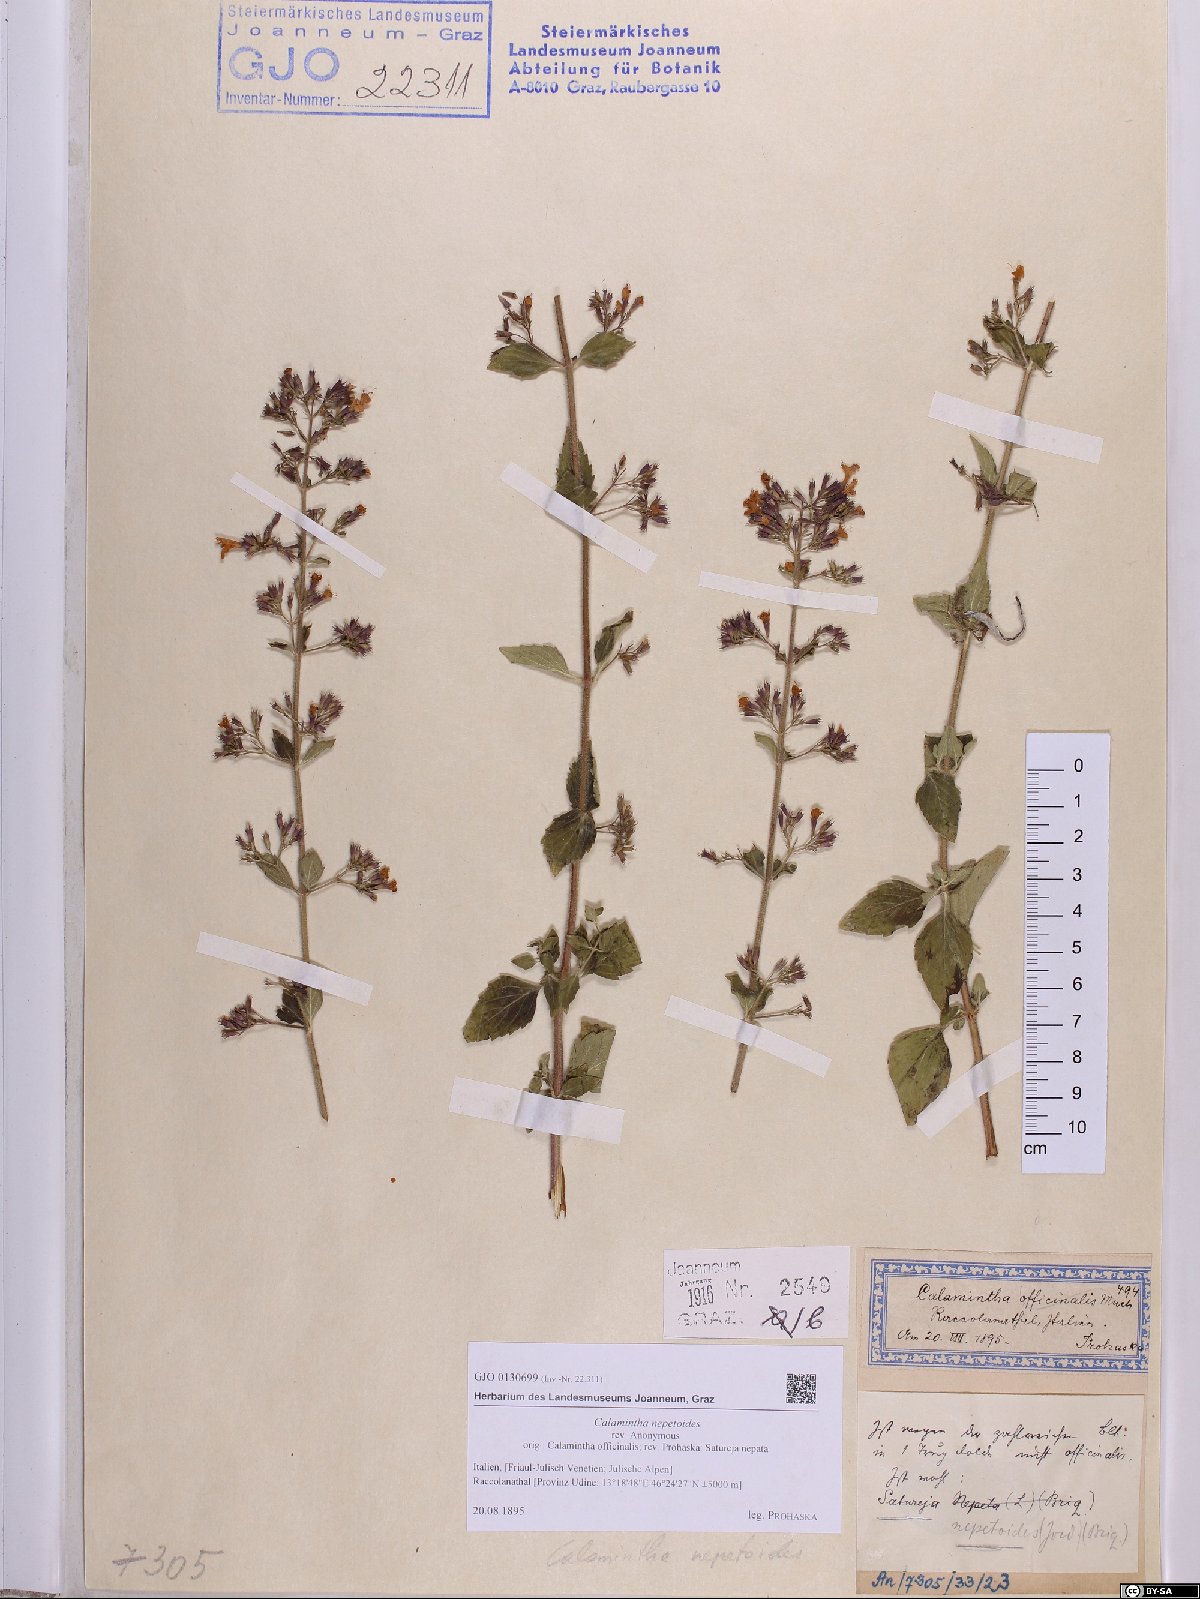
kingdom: Plantae
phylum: Tracheophyta
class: Magnoliopsida
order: Lamiales
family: Lamiaceae
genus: Clinopodium
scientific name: Clinopodium nepeta
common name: Lesser calamint
